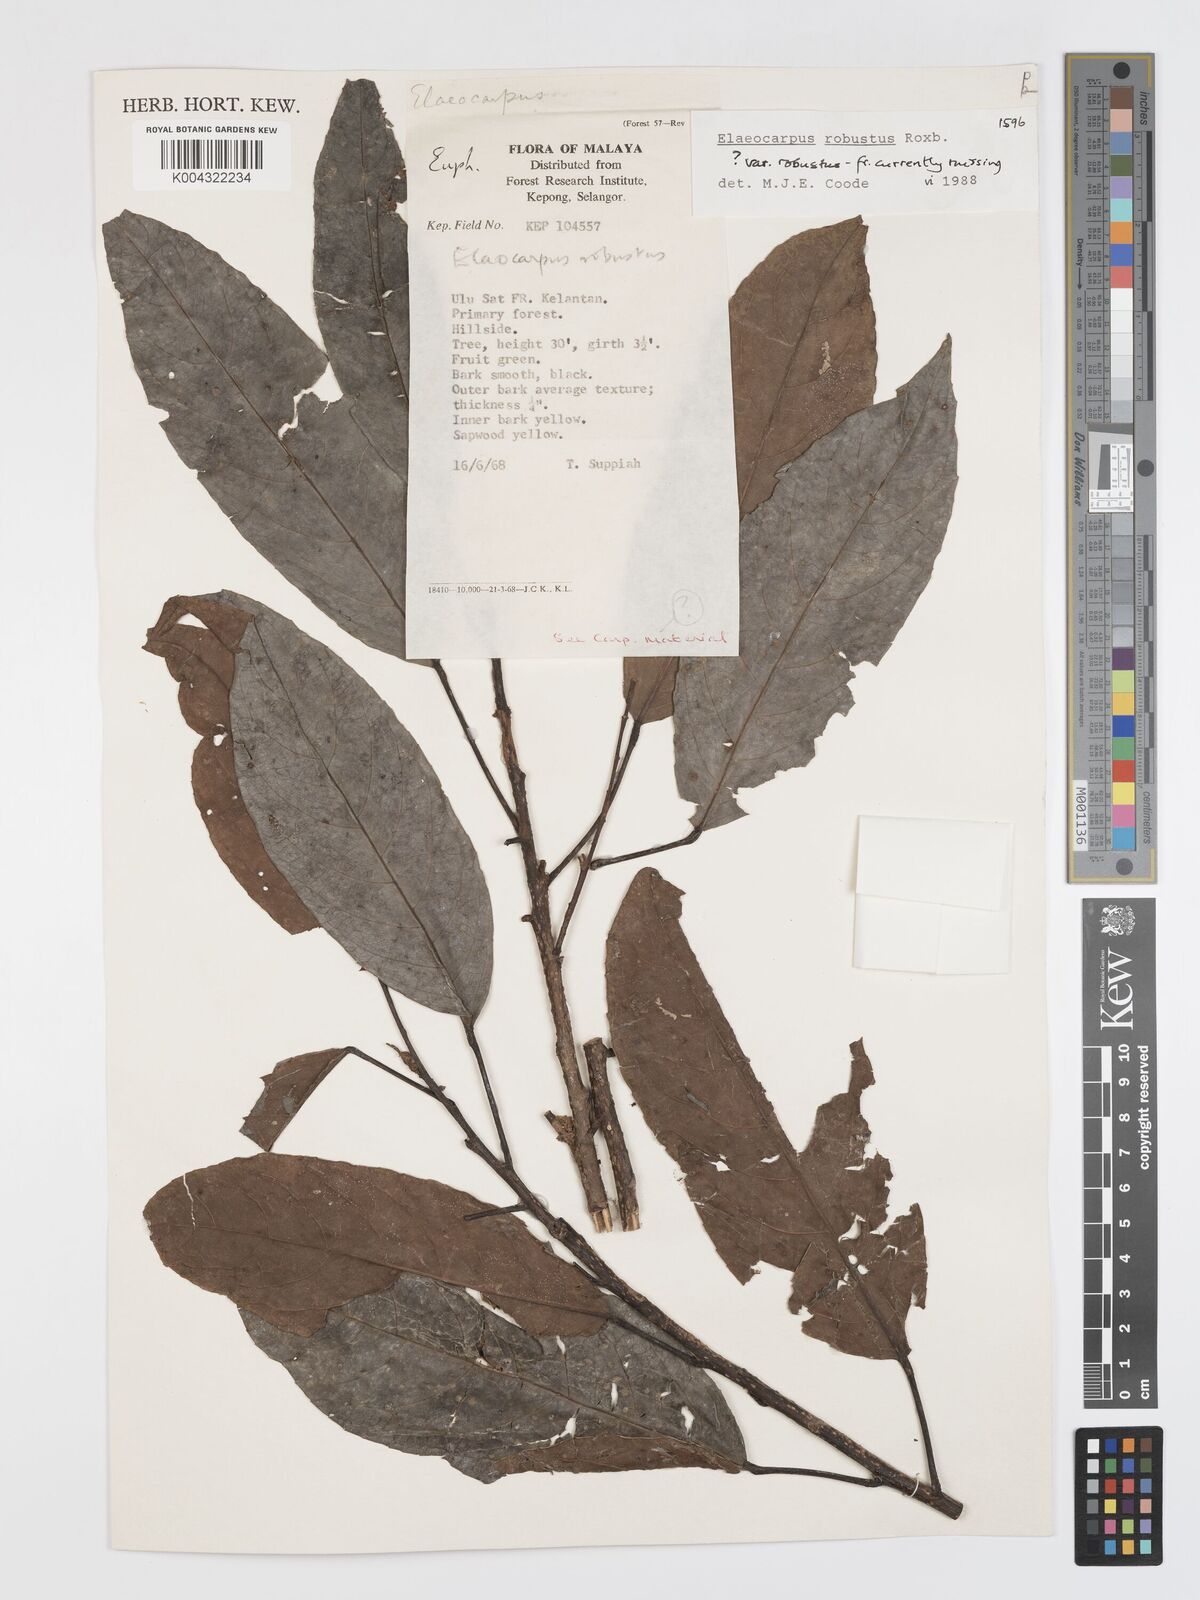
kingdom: Plantae
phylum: Tracheophyta
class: Magnoliopsida
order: Oxalidales
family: Elaeocarpaceae
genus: Elaeocarpus
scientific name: Elaeocarpus robustus
